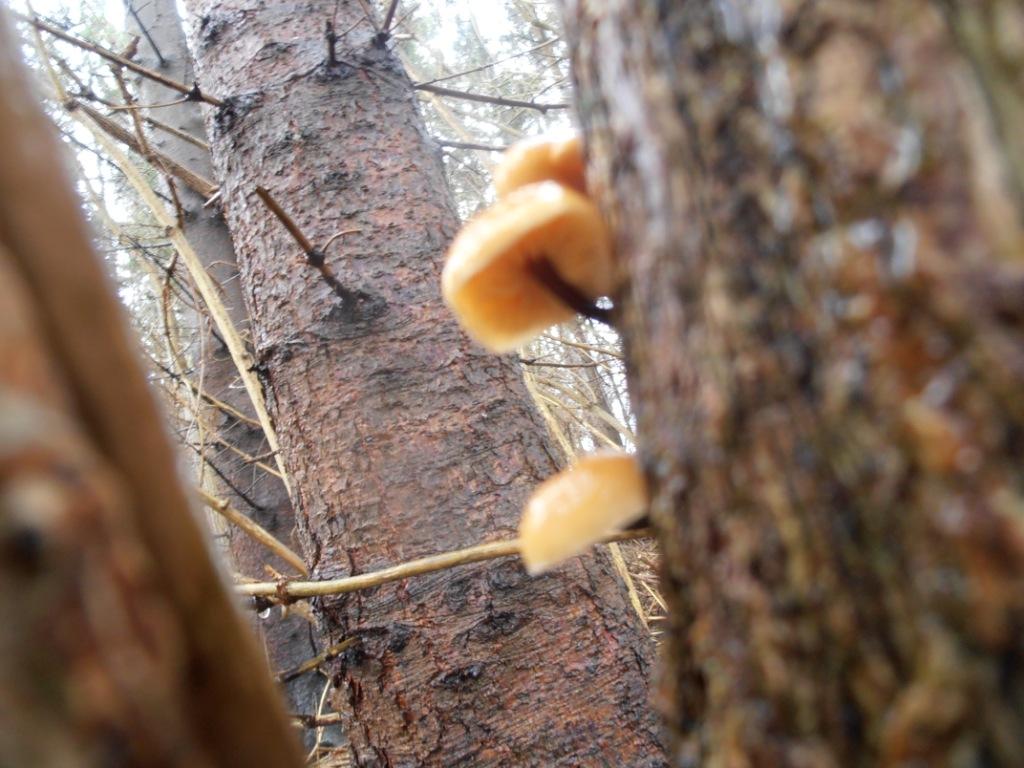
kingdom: Fungi
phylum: Basidiomycota
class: Agaricomycetes
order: Agaricales
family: Physalacriaceae
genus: Flammulina
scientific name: Flammulina velutipes
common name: gul fløjlsfod
